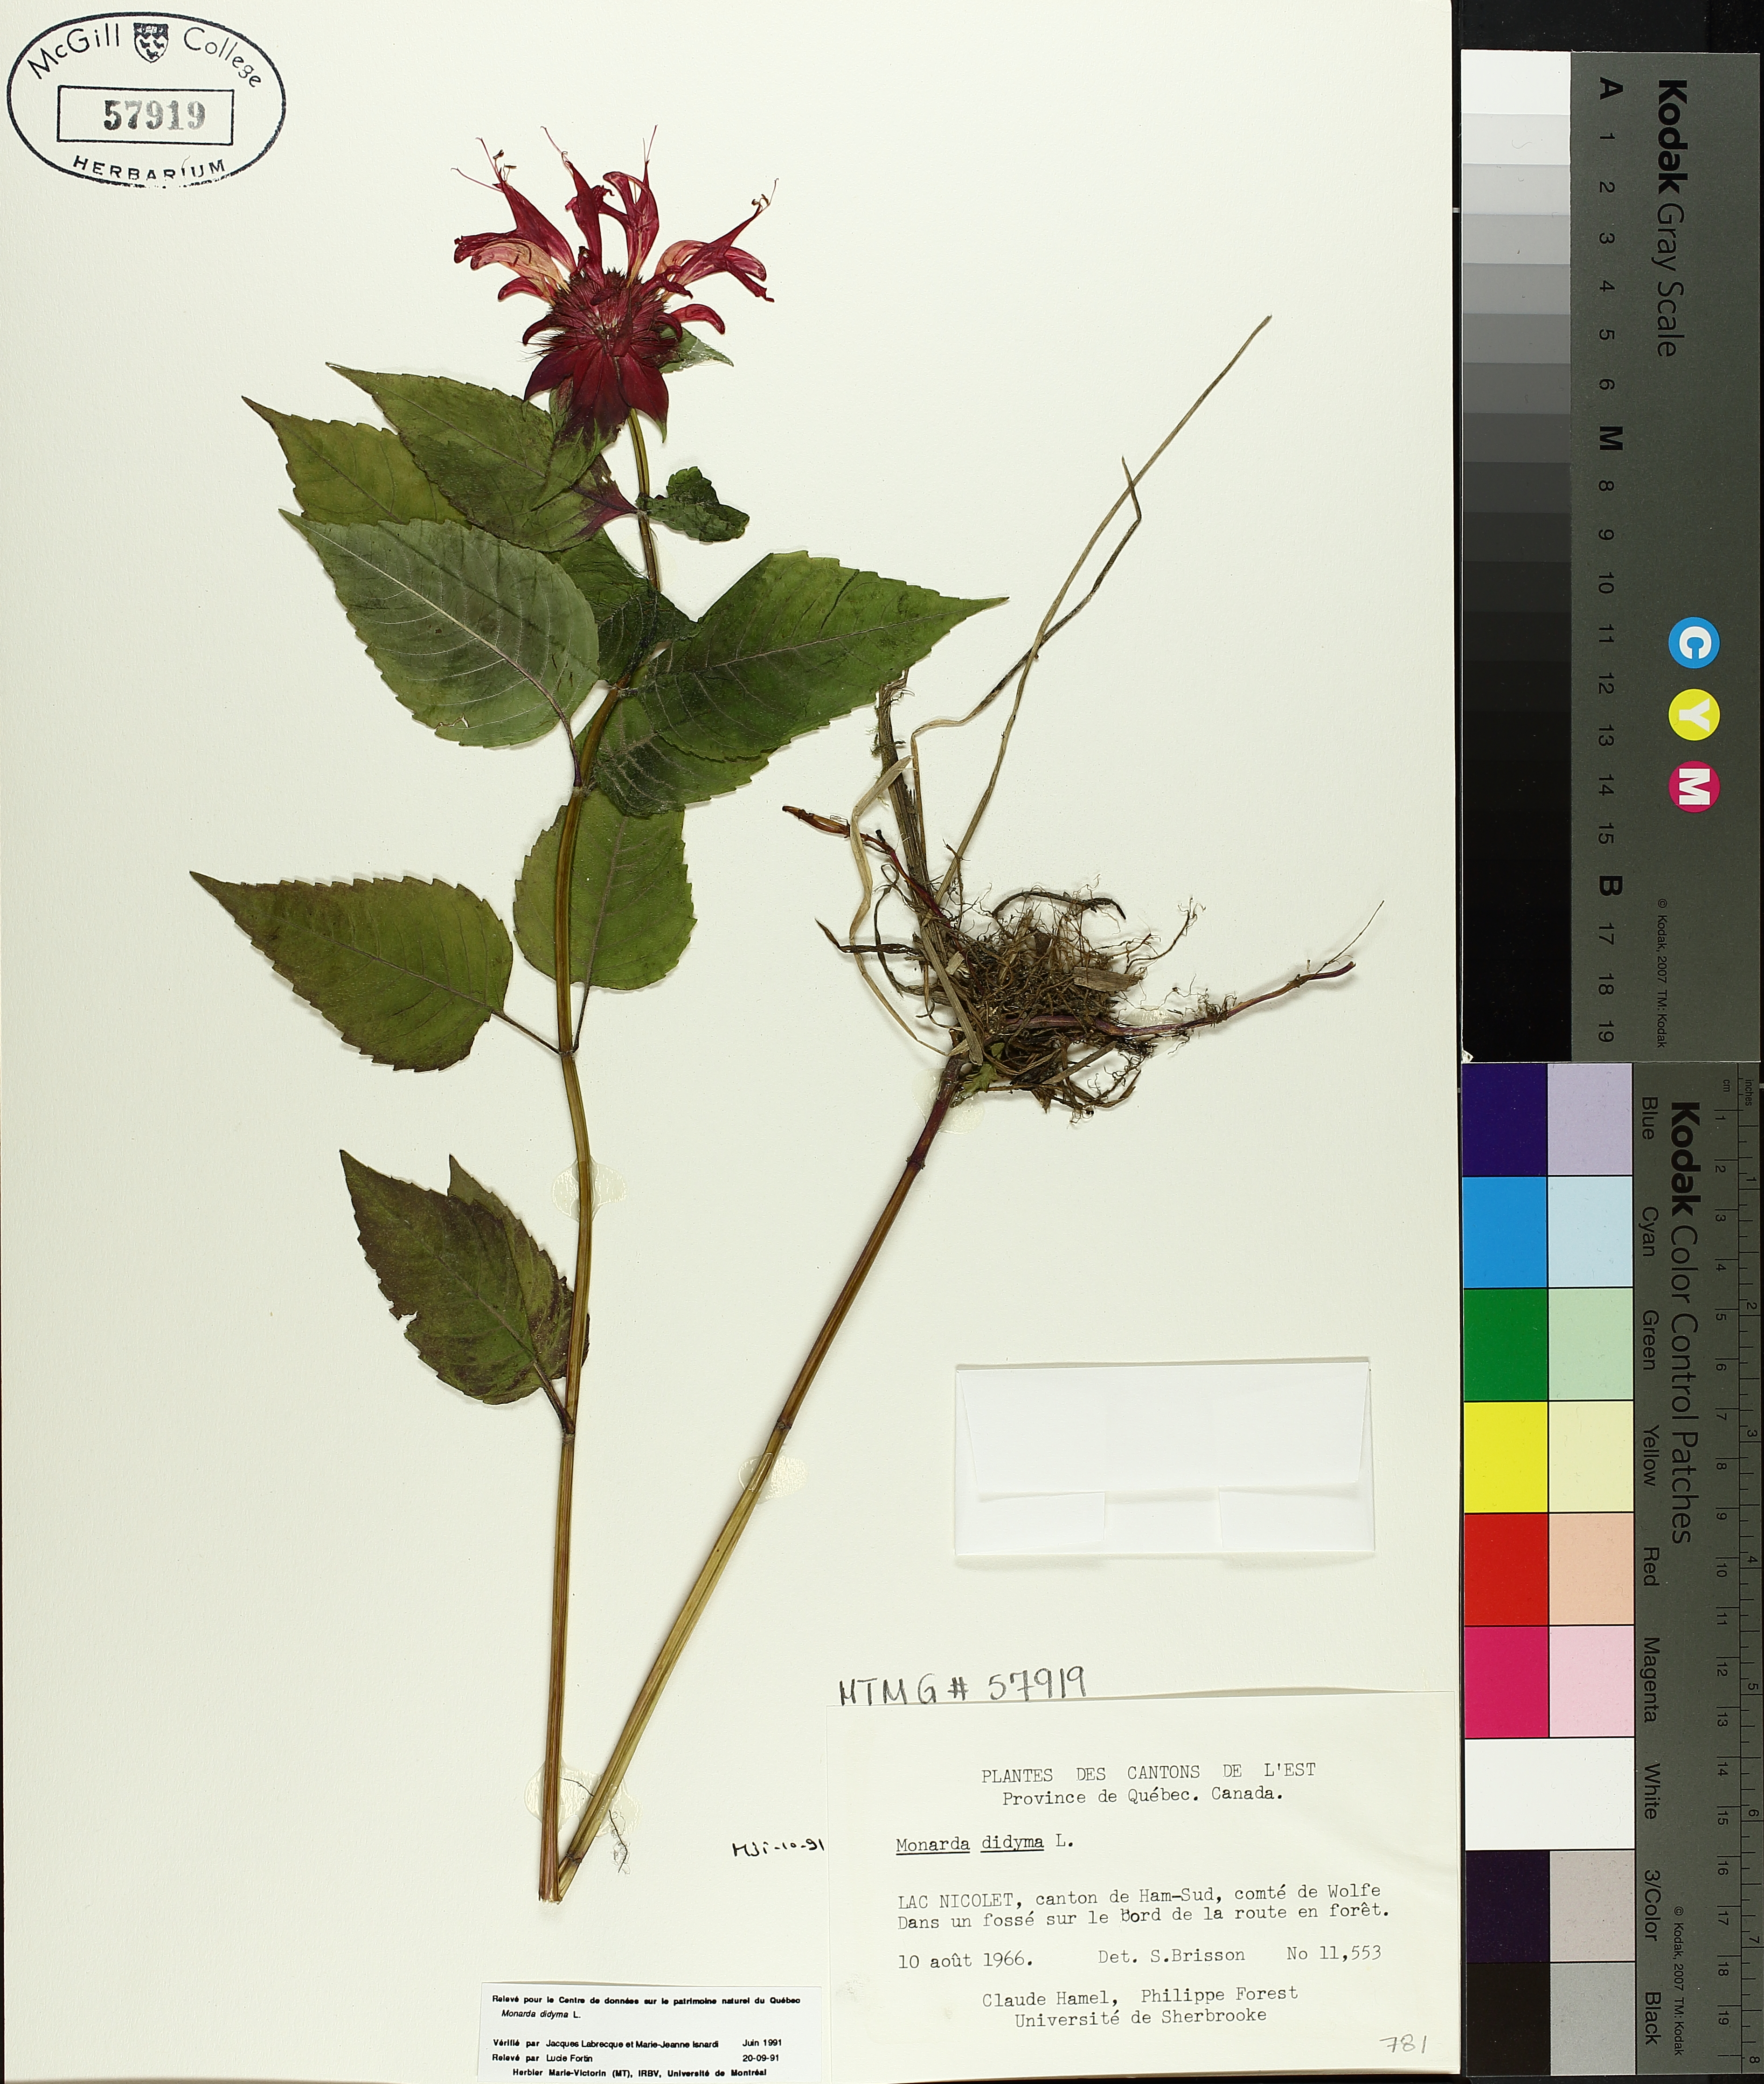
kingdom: Plantae
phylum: Tracheophyta
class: Magnoliopsida
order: Lamiales
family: Lamiaceae
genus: Monarda
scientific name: Monarda didyma
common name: Beebalm
